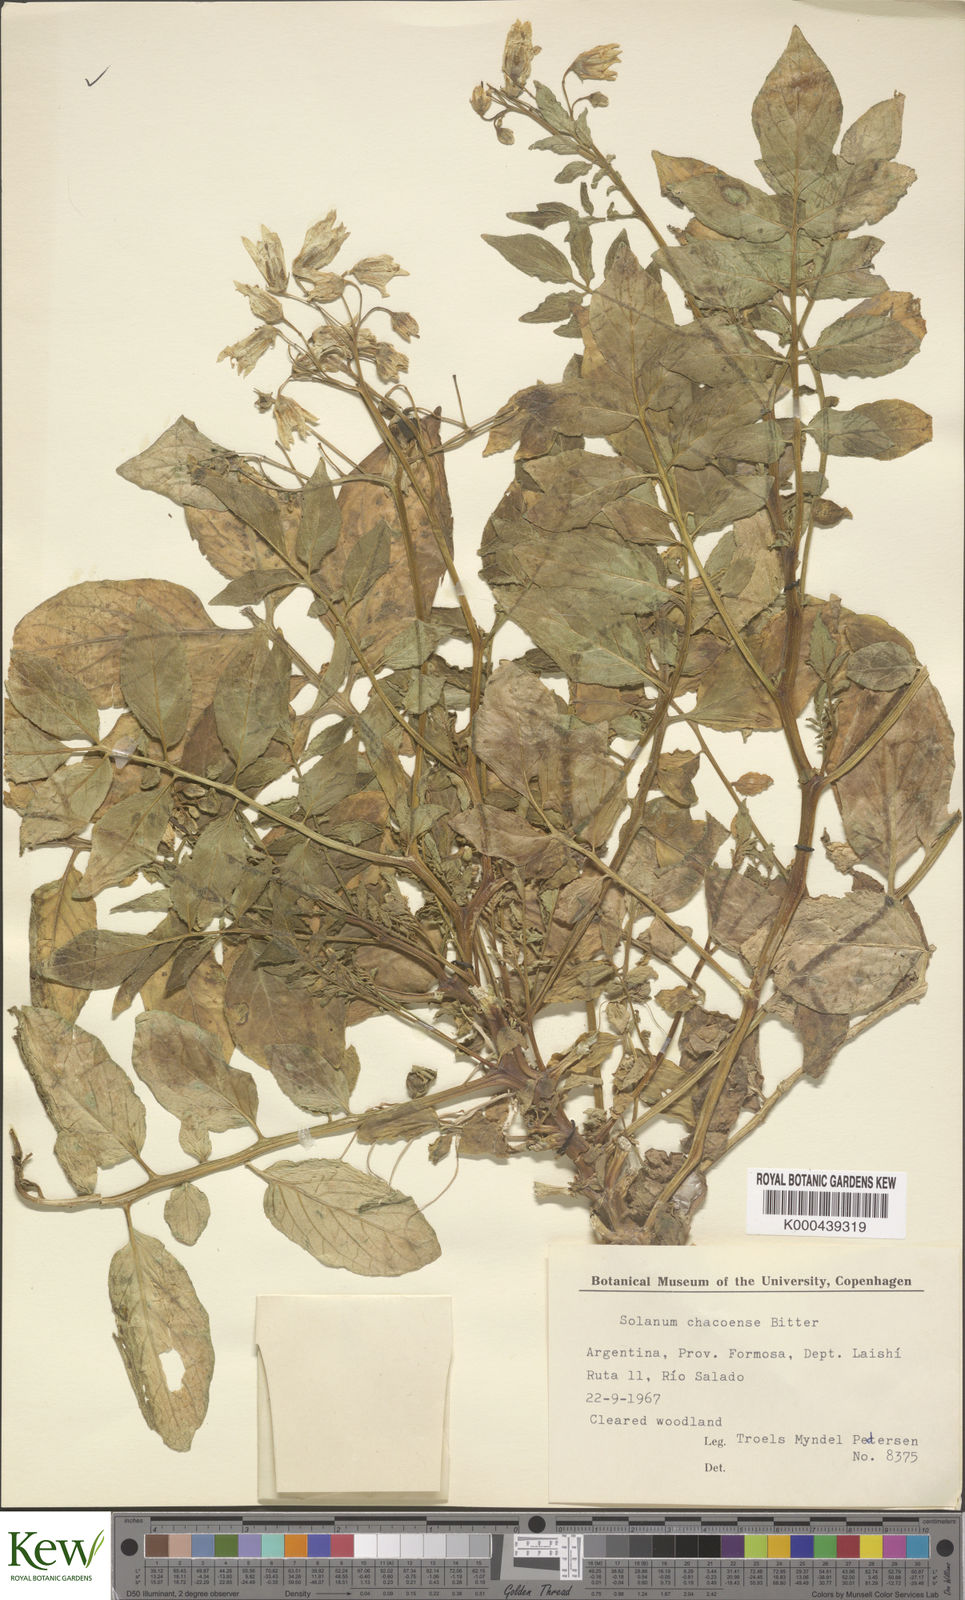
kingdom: Plantae
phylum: Tracheophyta
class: Magnoliopsida
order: Solanales
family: Solanaceae
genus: Solanum
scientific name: Solanum chacoense
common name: Chaco potato
